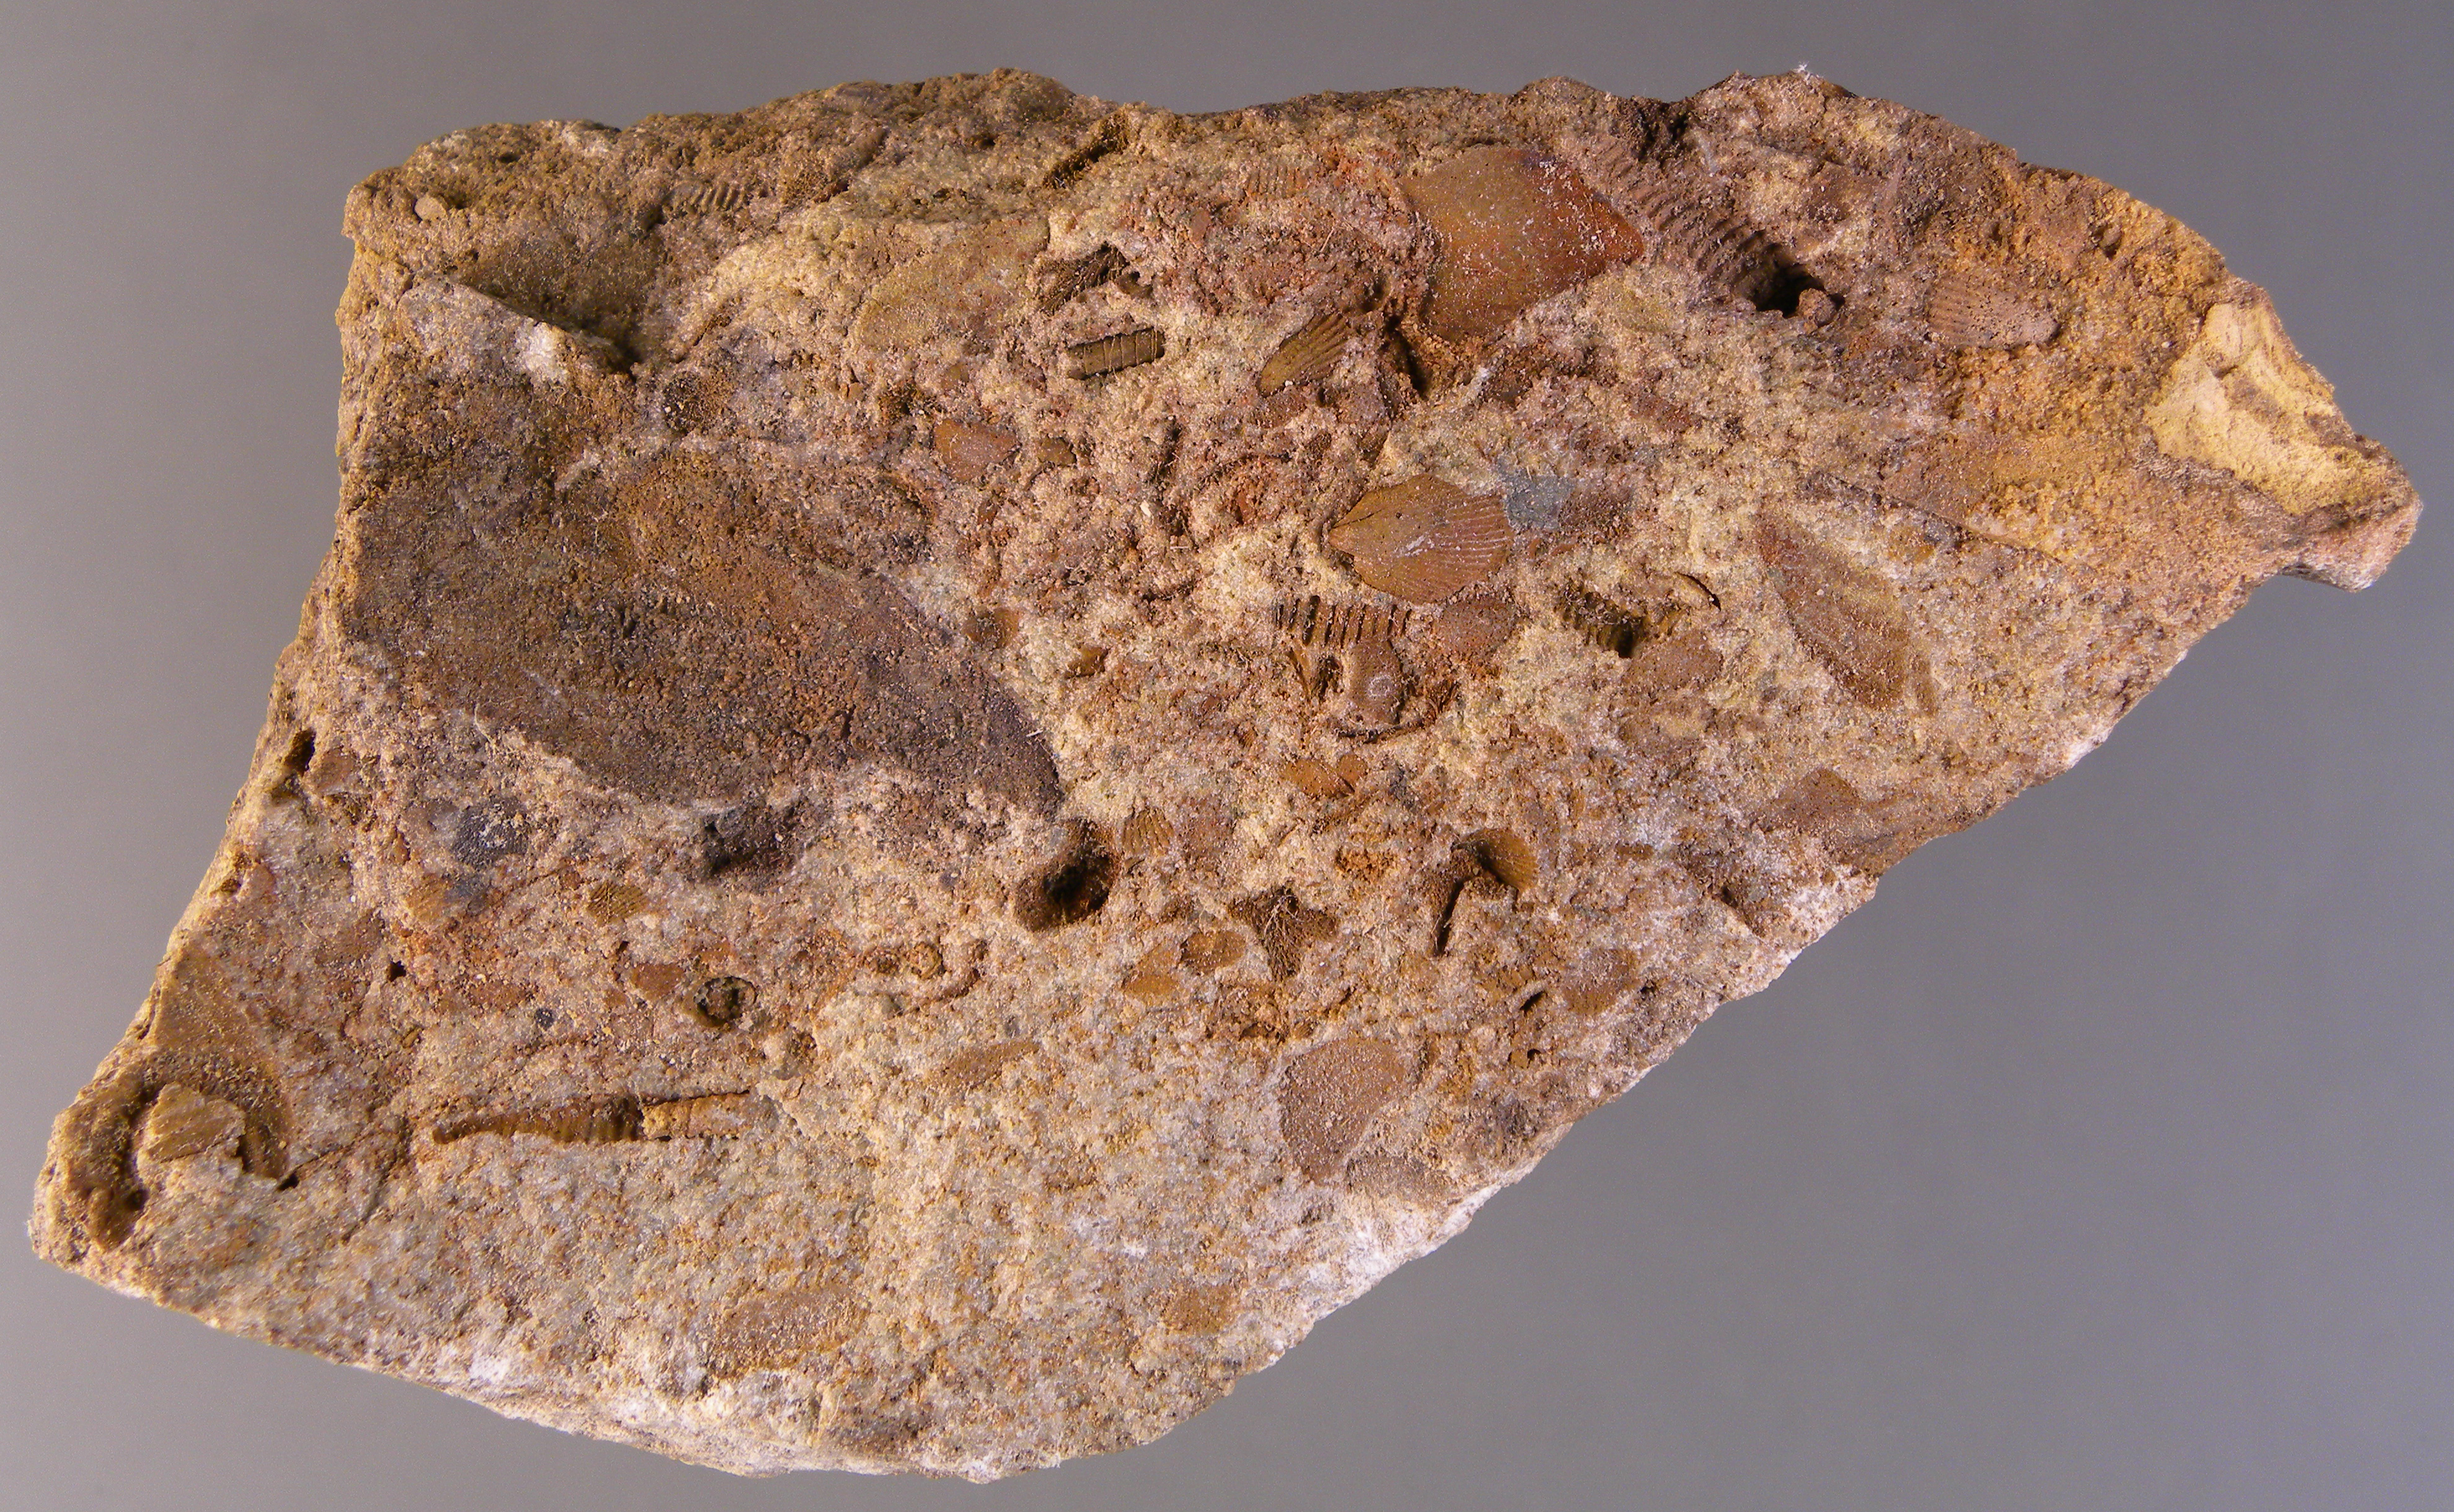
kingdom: Animalia
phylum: Brachiopoda
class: Rhynchonellata
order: Terebratulida
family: Mutationellidae
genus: Mutationella
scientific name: Mutationella
